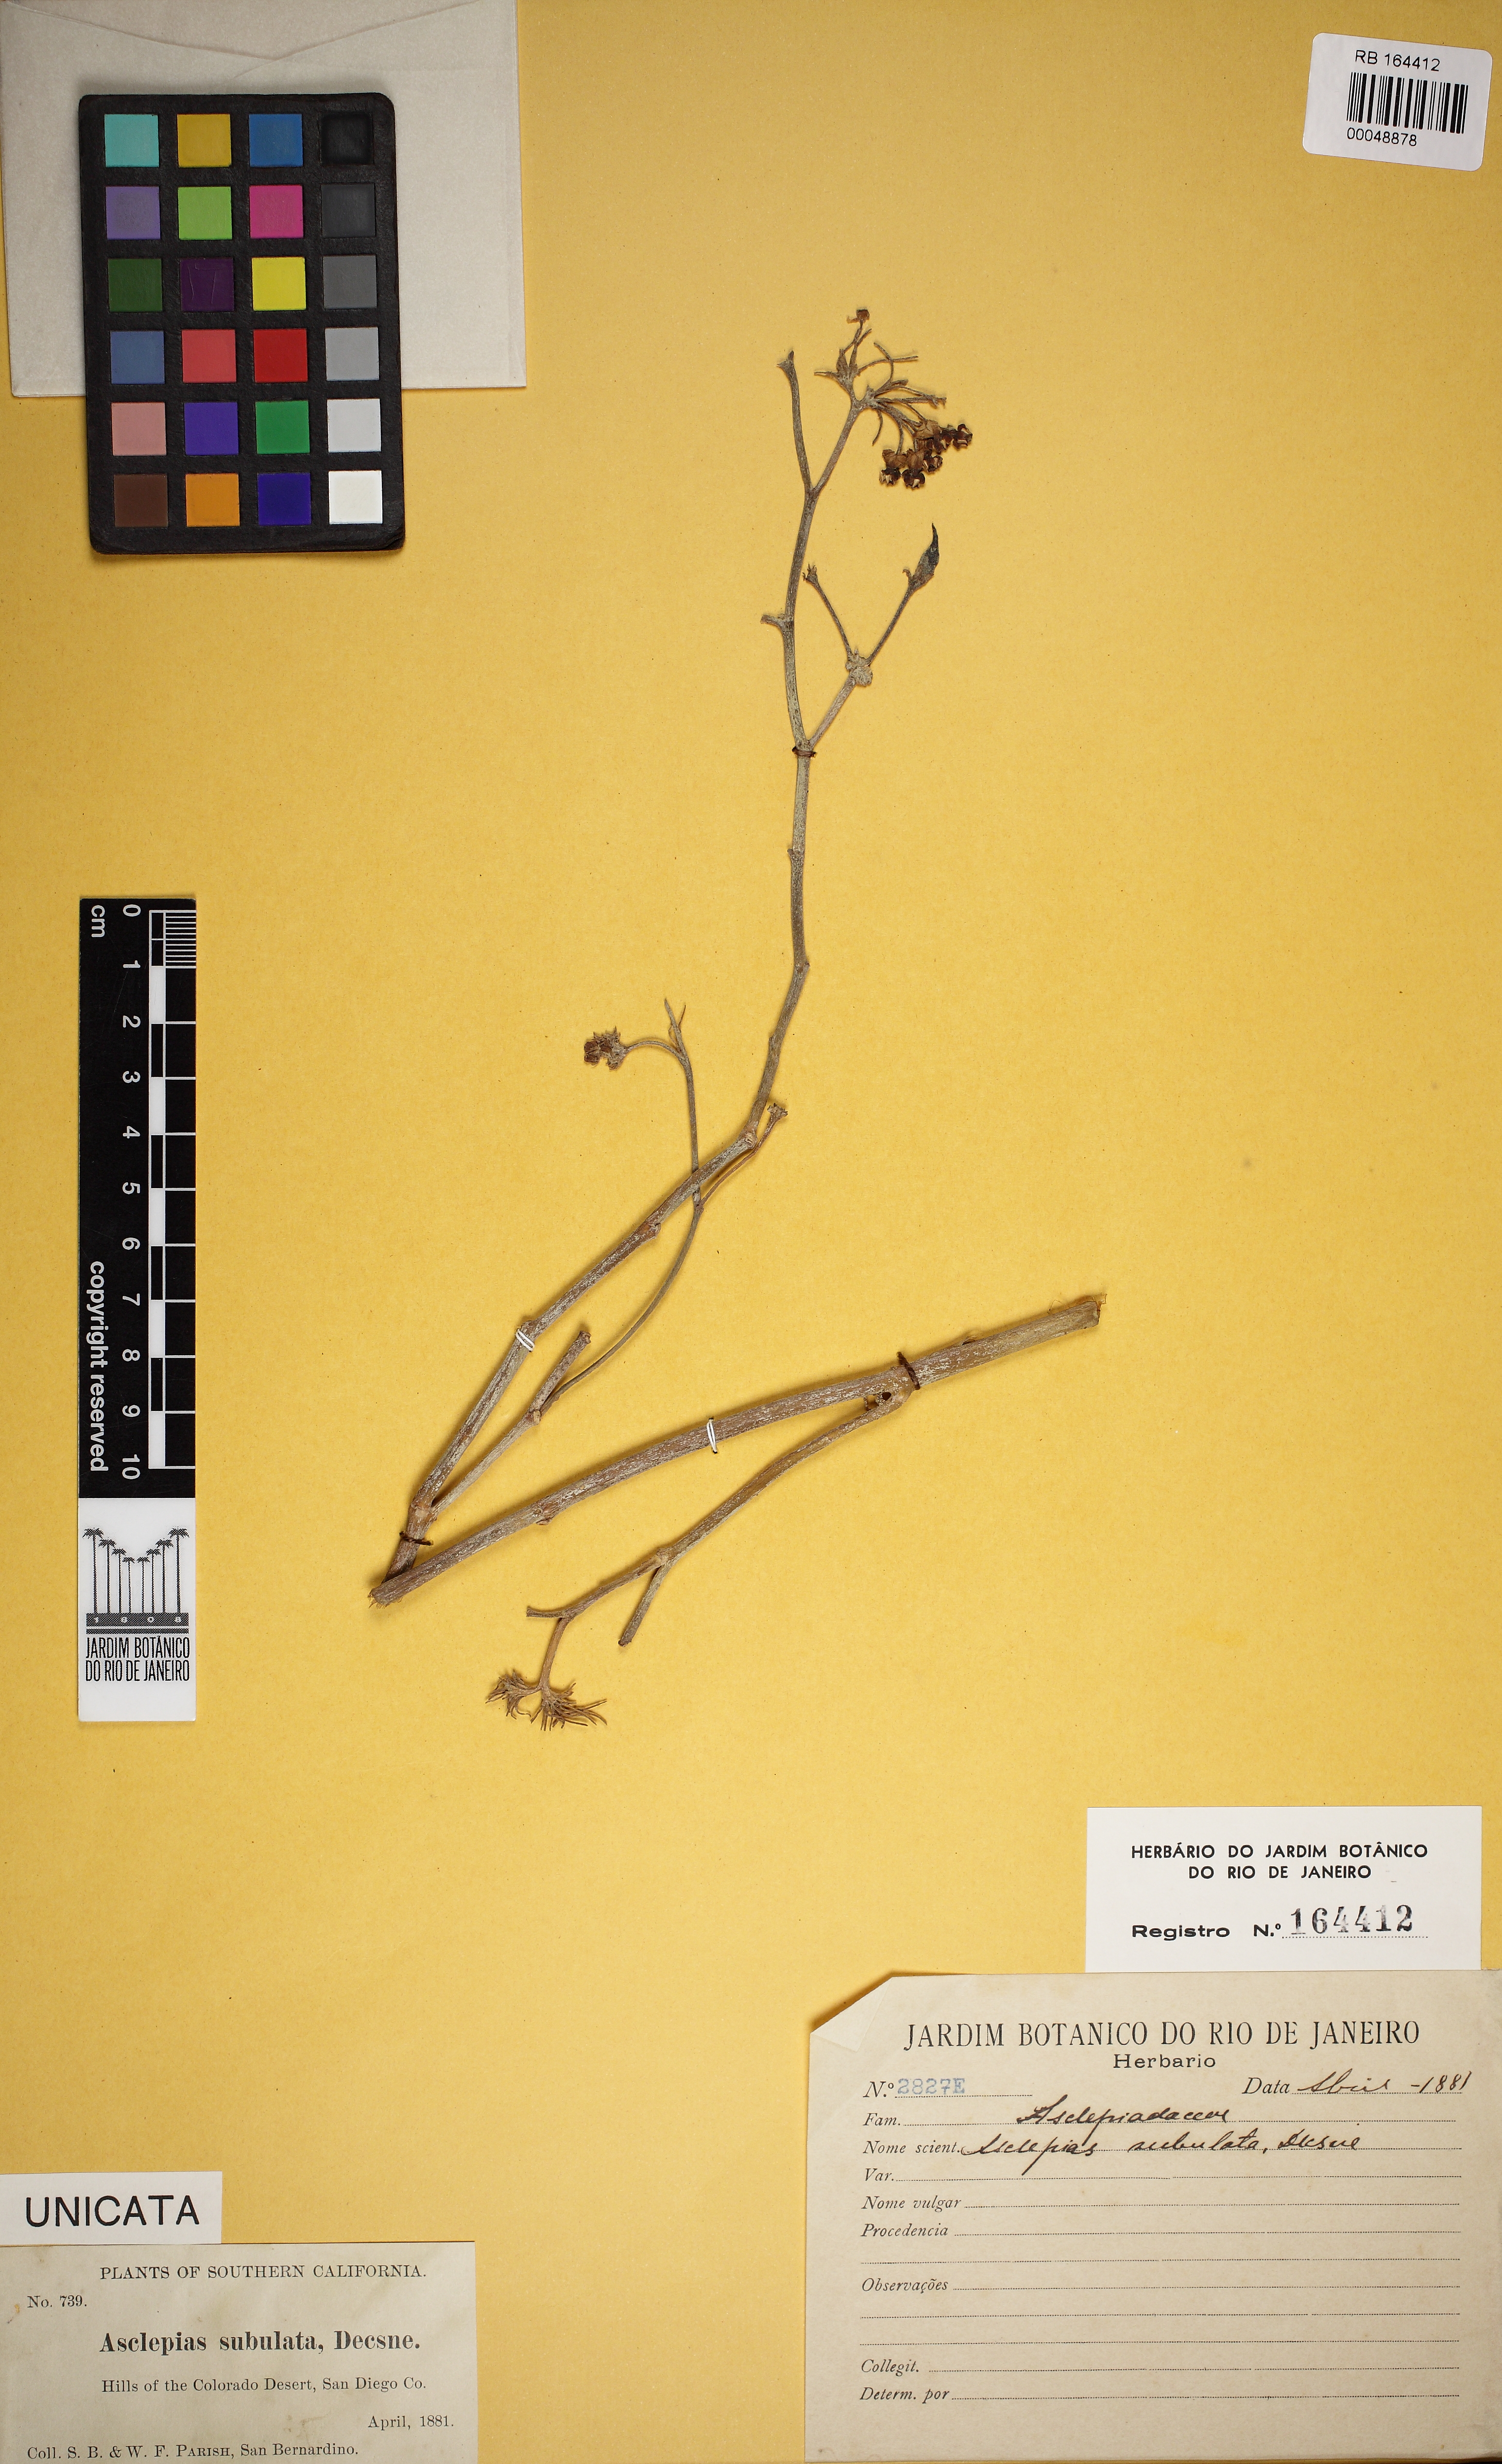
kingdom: Plantae
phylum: Tracheophyta
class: Magnoliopsida
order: Gentianales
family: Apocynaceae
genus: Asclepias
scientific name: Asclepias subulata
